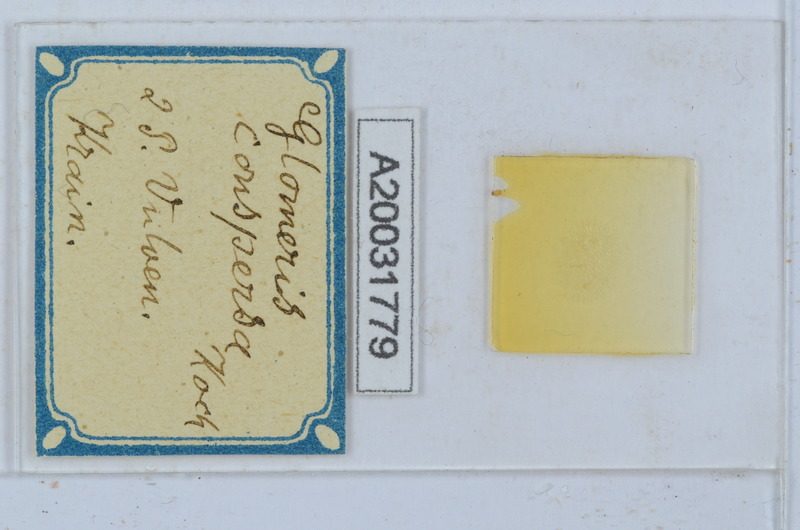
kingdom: Animalia
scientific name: Animalia
